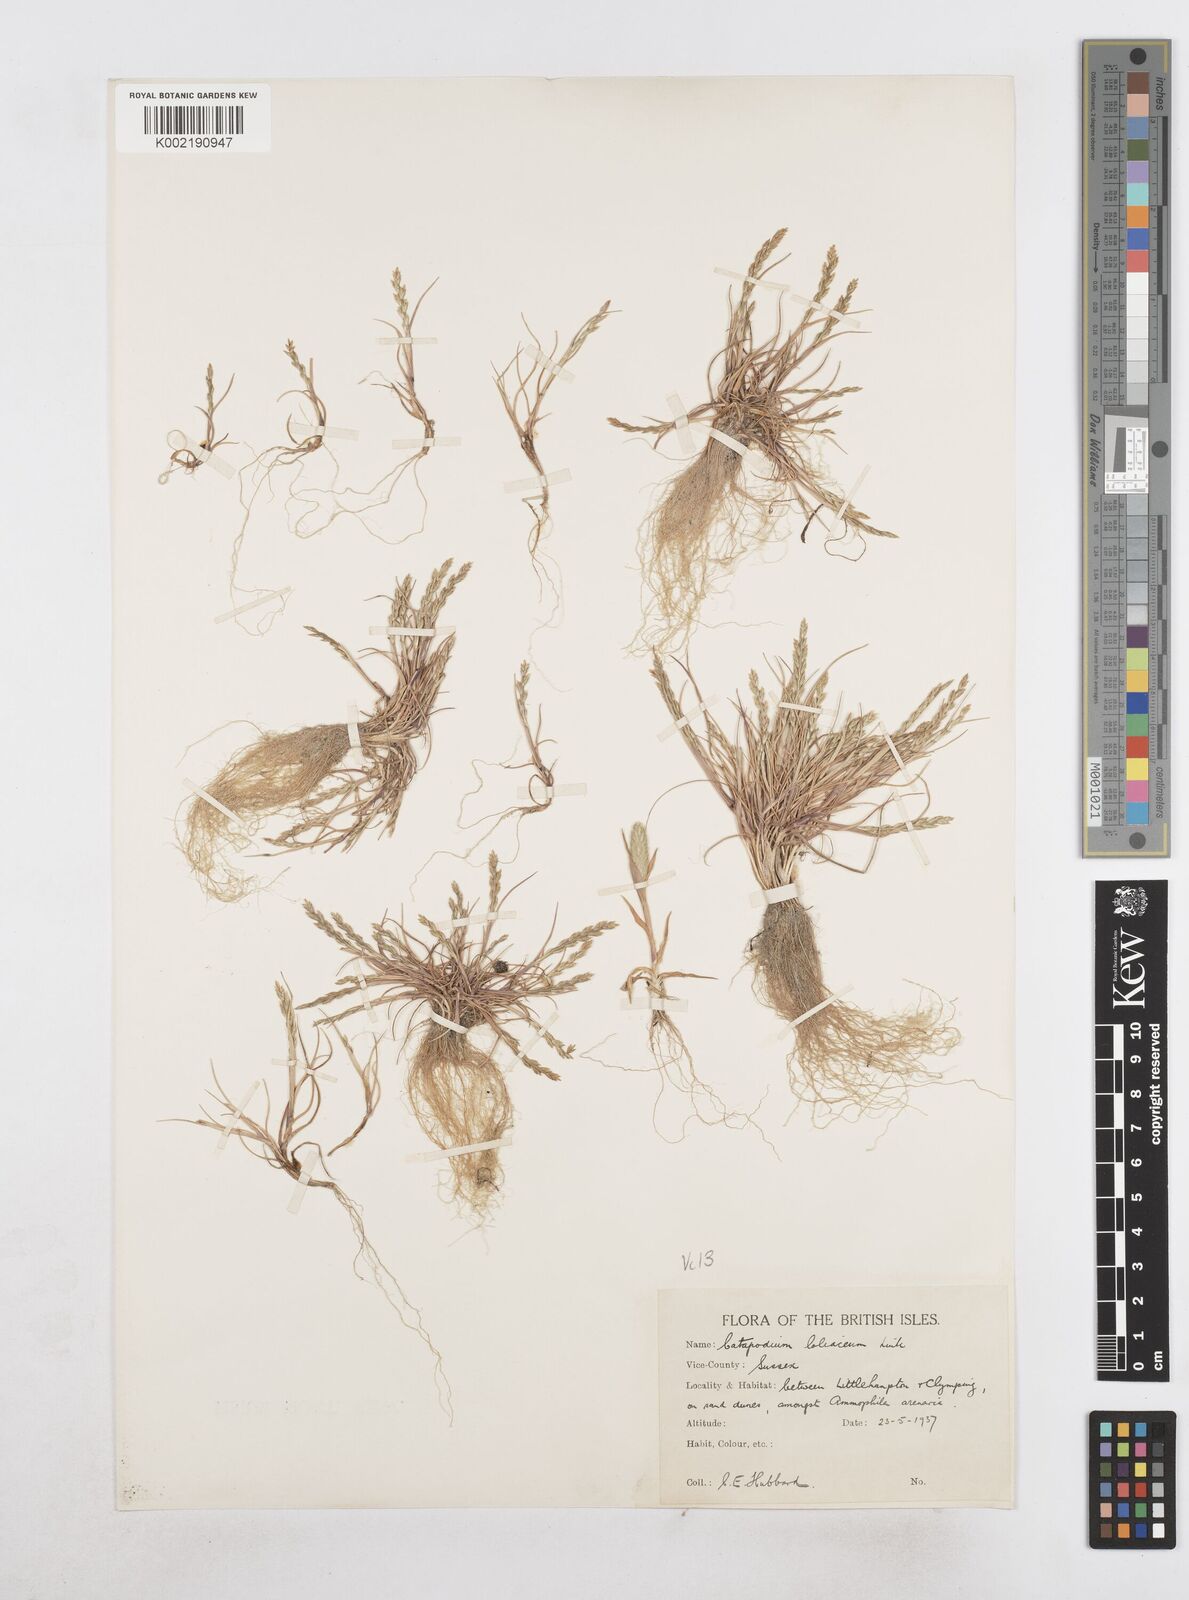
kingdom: Plantae
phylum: Tracheophyta
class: Liliopsida
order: Poales
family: Poaceae
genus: Catapodium
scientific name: Catapodium marinum
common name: Sea fern-grass
